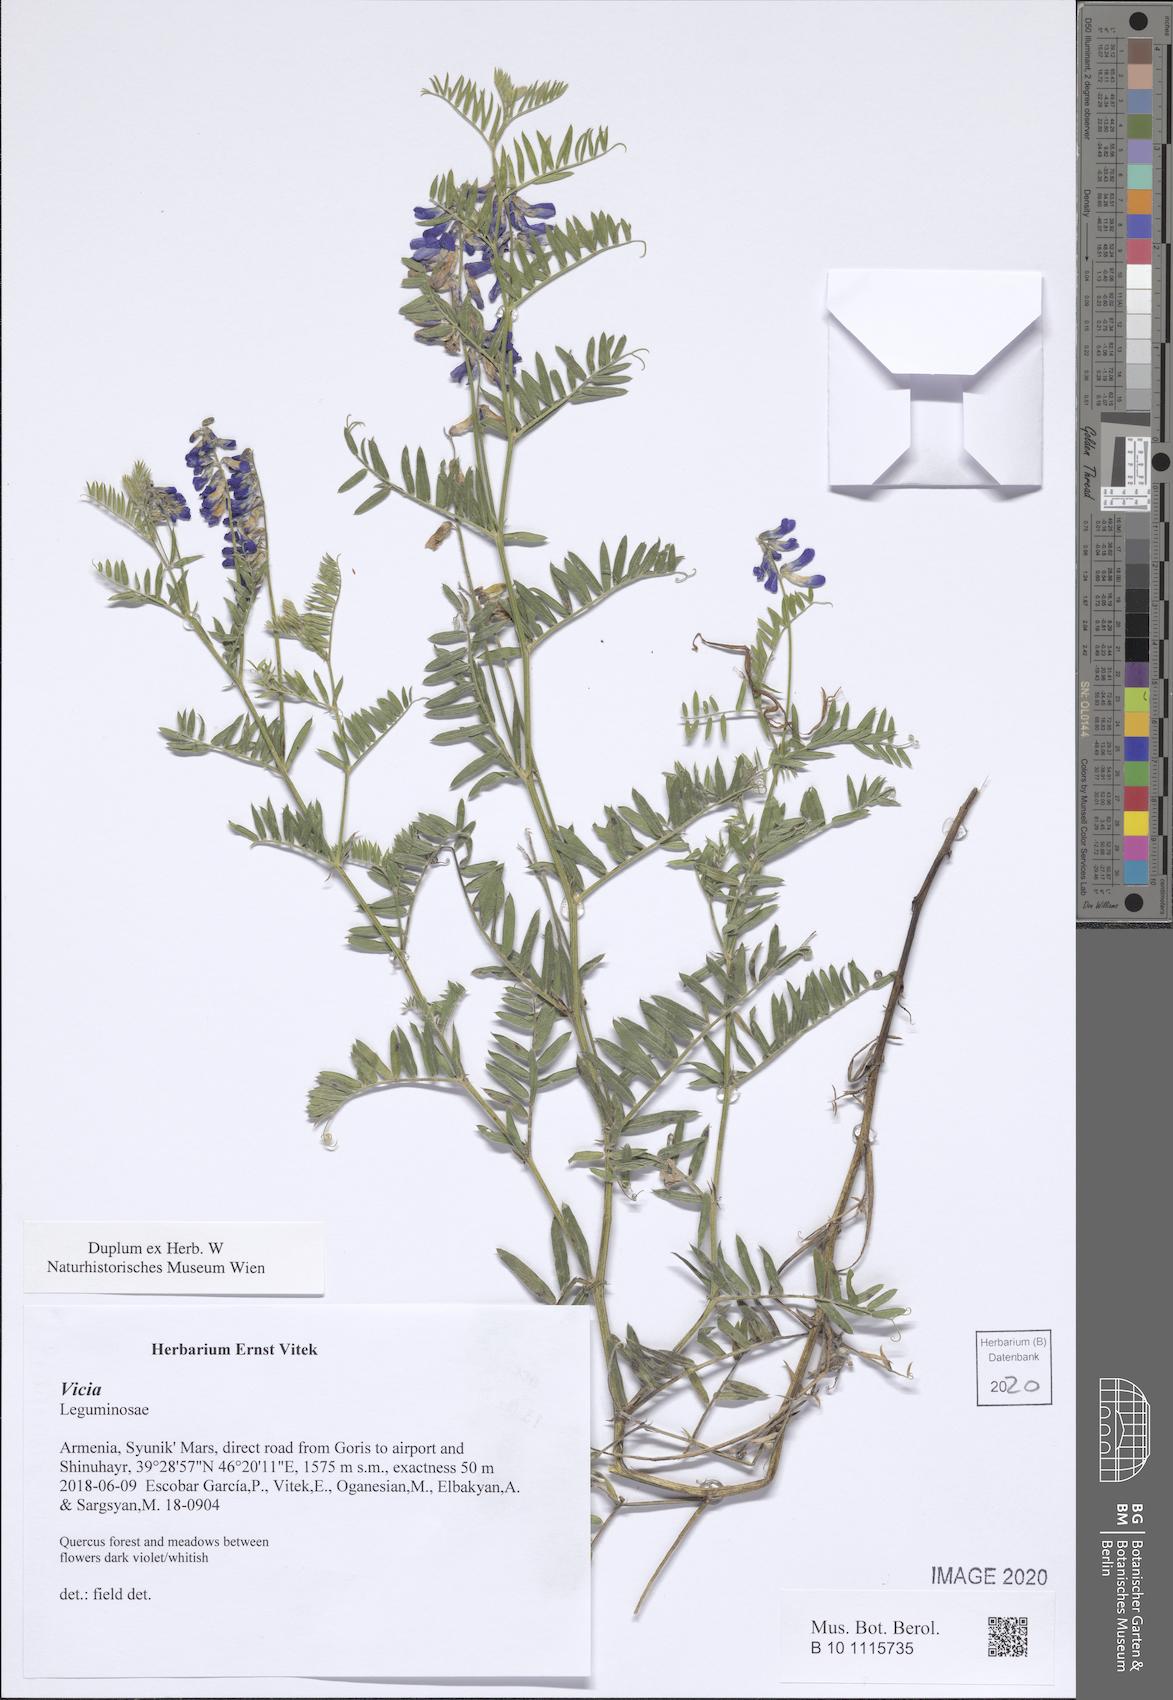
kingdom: Plantae
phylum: Tracheophyta
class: Magnoliopsida
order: Fabales
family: Fabaceae
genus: Vicia
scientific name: Vicia
